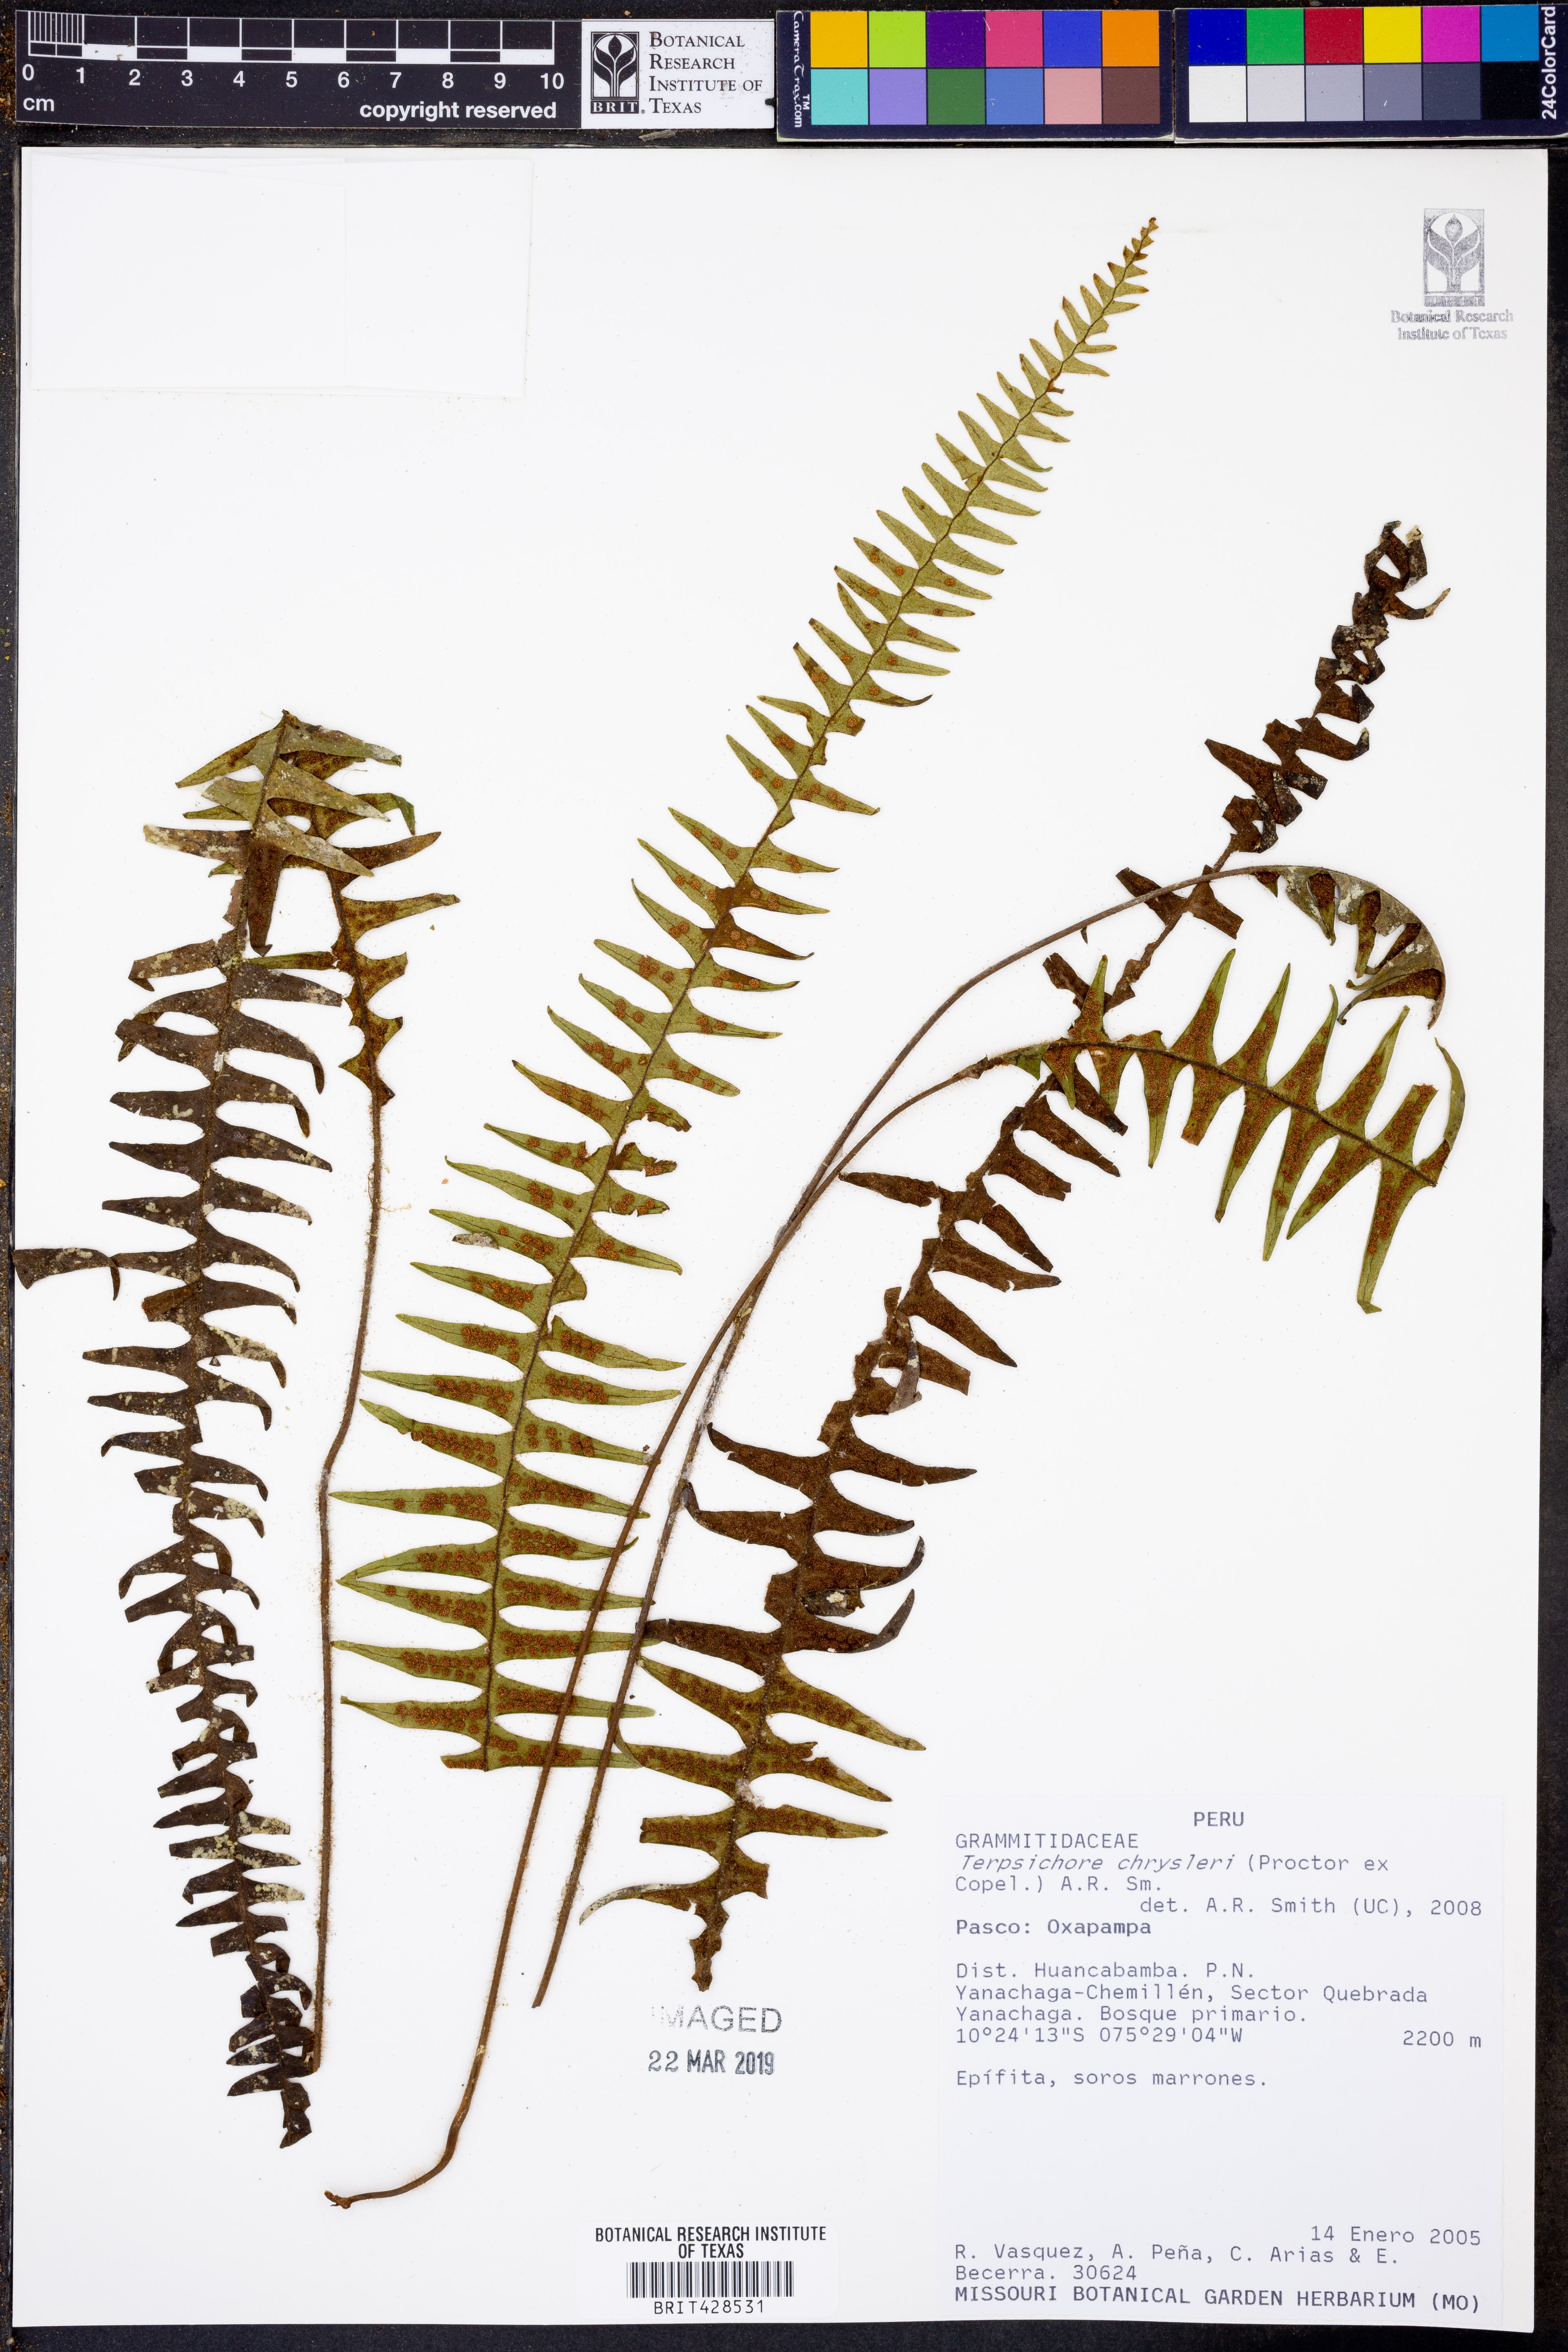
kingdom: Plantae
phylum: Tracheophyta
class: Polypodiopsida
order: Polypodiales
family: Polypodiaceae
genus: Terpsichore
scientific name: Terpsichore chrysleri
